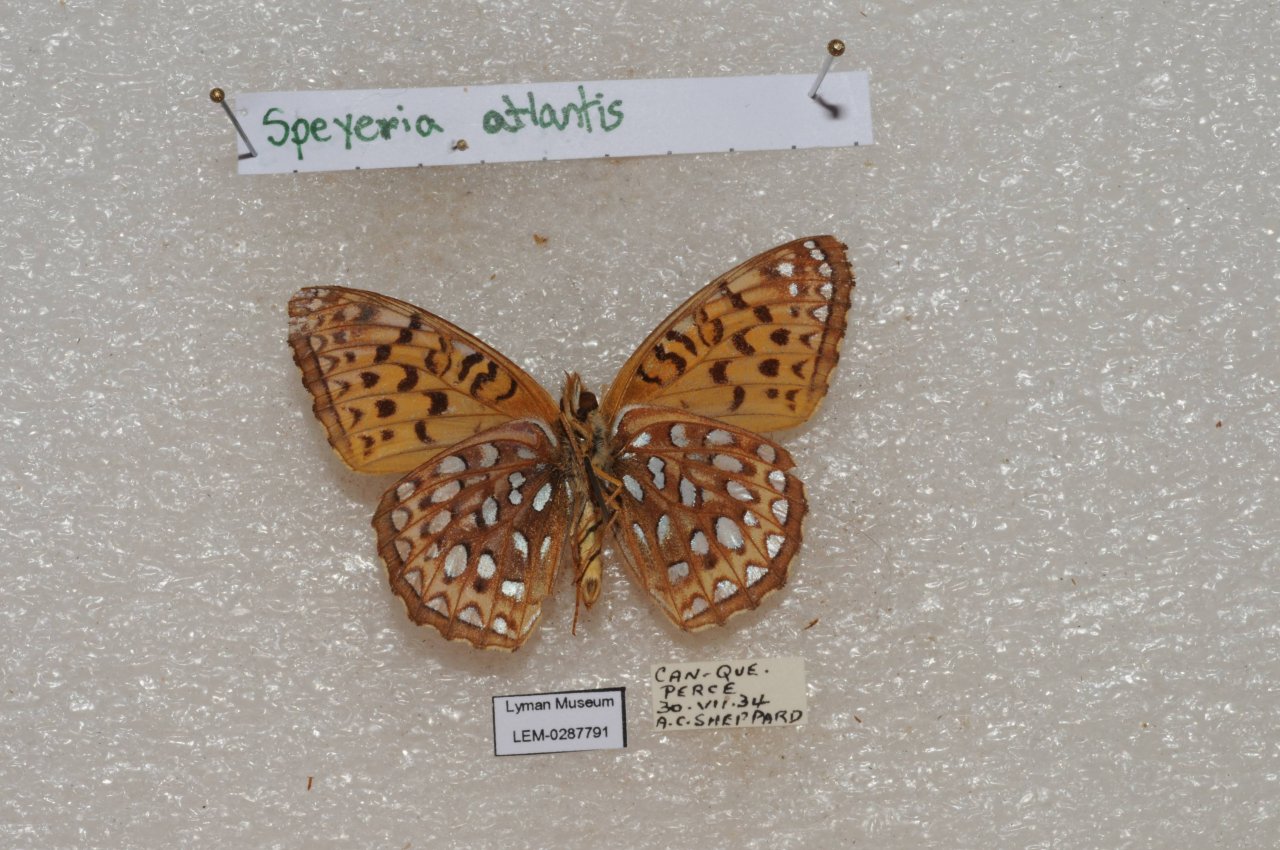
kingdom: Animalia
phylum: Arthropoda
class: Insecta
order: Lepidoptera
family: Nymphalidae
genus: Speyeria
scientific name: Speyeria atlantis
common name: Atlantis Fritillary
